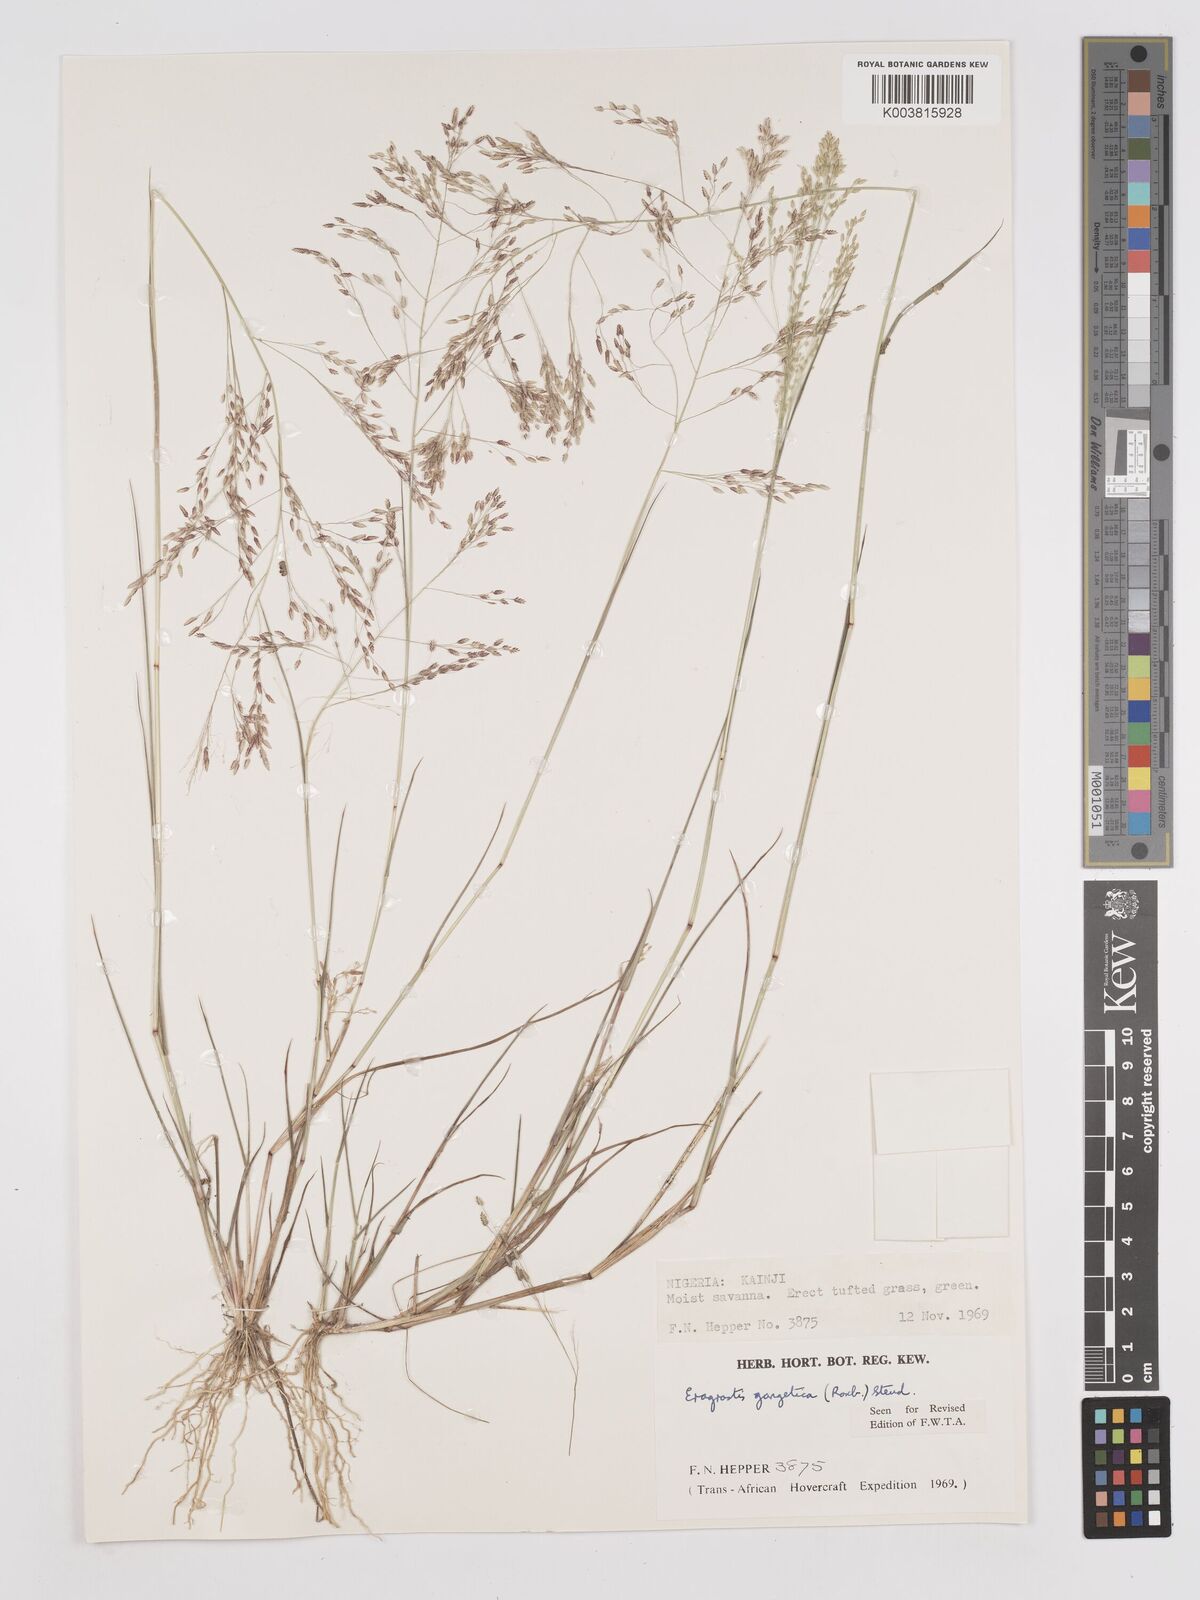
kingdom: Plantae
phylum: Tracheophyta
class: Liliopsida
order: Poales
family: Poaceae
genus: Eragrostis
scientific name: Eragrostis gangetica
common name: Slimflower lovegrass
